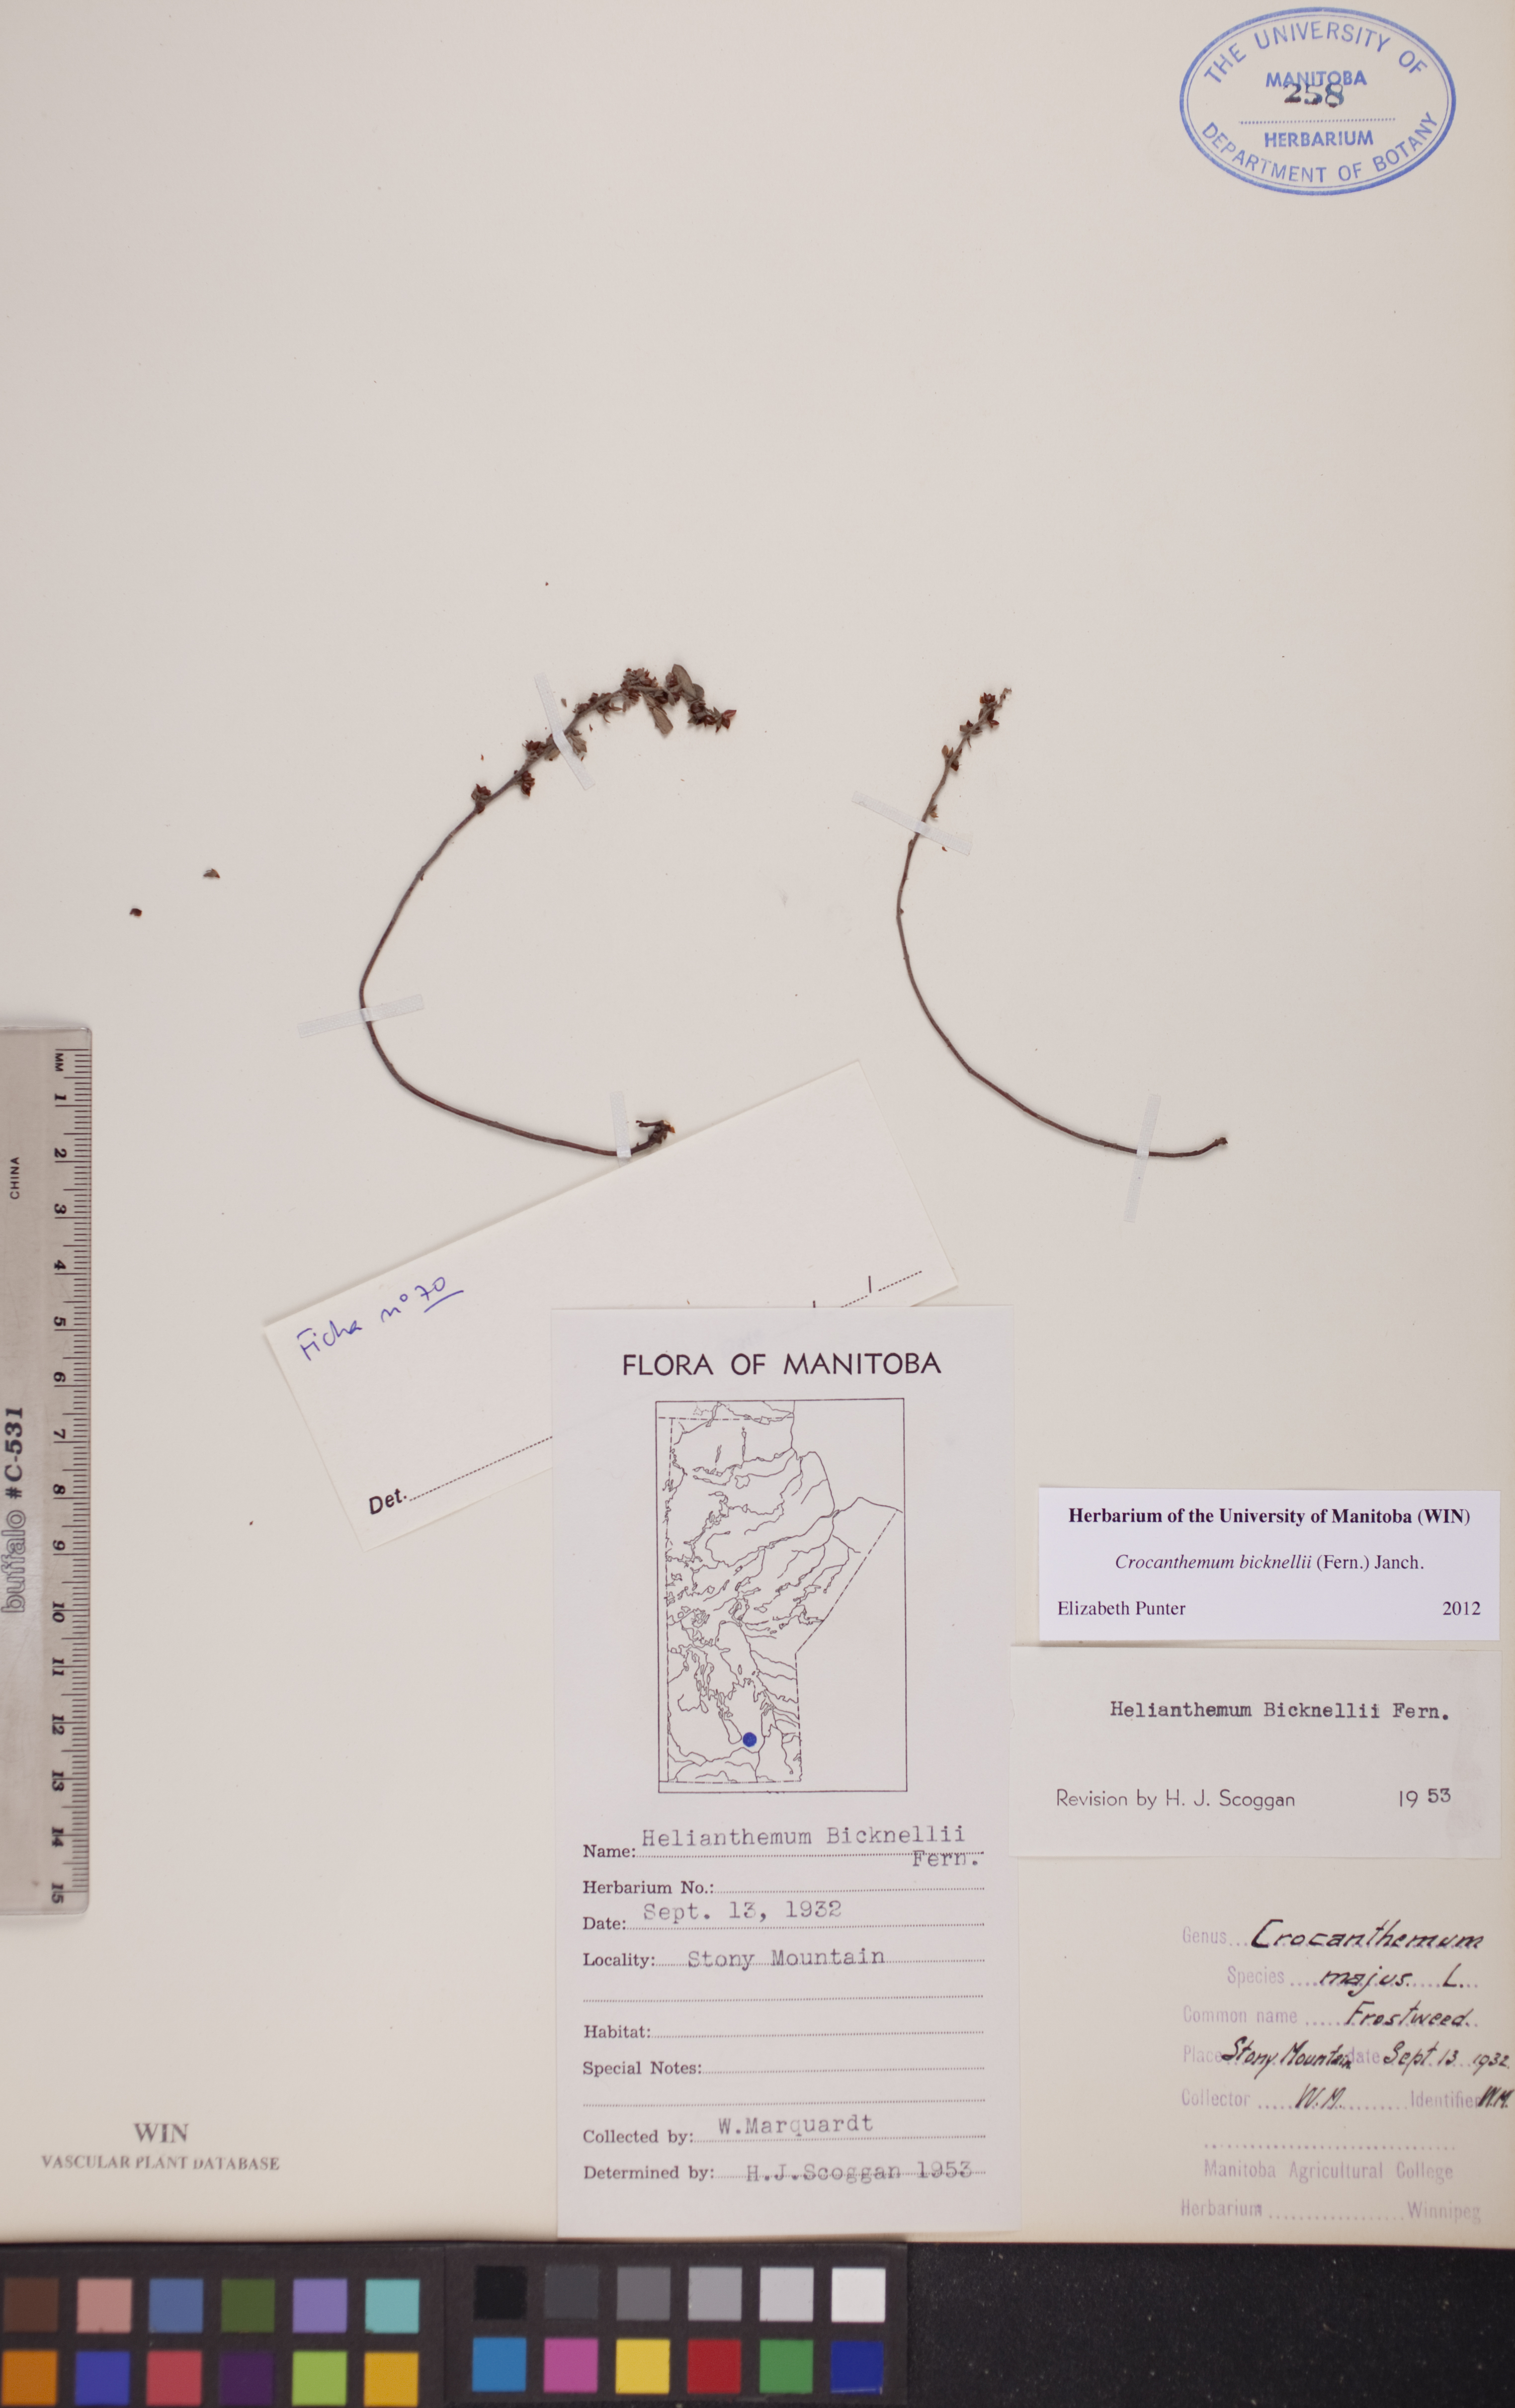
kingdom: Plantae
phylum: Tracheophyta
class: Magnoliopsida
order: Malvales
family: Cistaceae
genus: Crocanthemum
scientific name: Crocanthemum bicknellii
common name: Hoary frostweed
